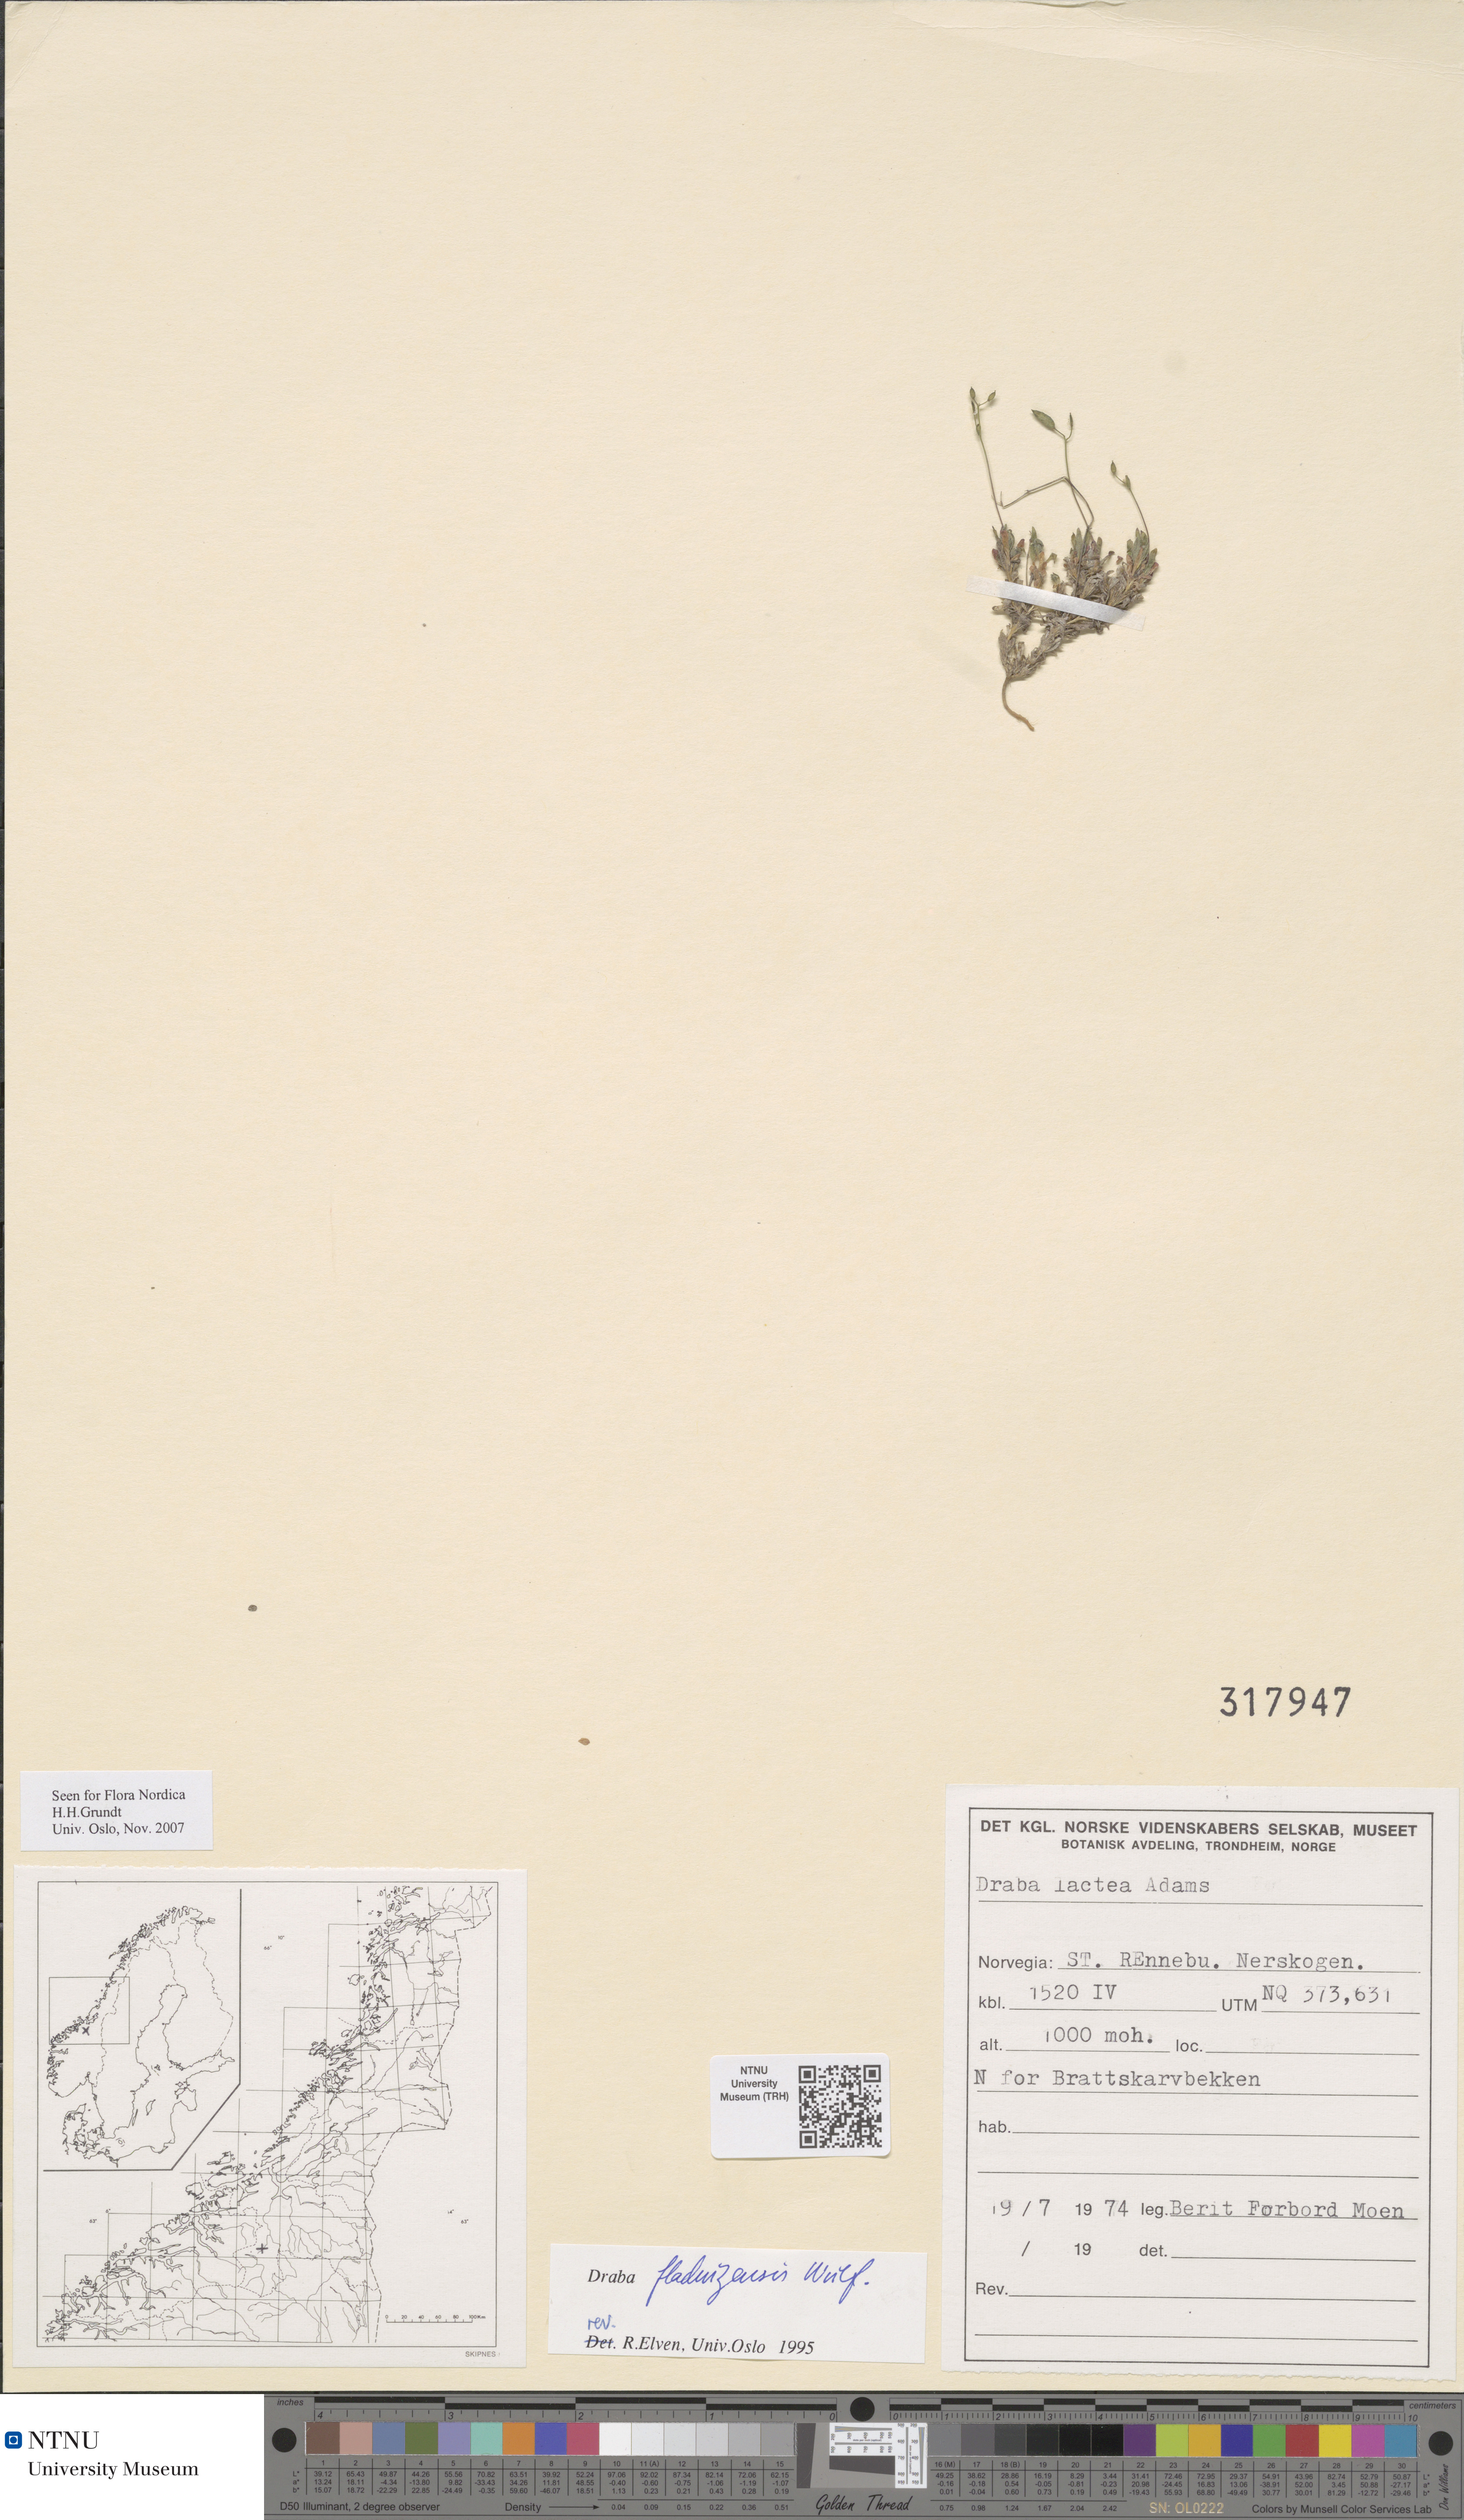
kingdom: Plantae
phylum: Tracheophyta
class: Magnoliopsida
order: Brassicales
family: Brassicaceae
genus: Draba
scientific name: Draba fladnizensis
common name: Austrian draba
